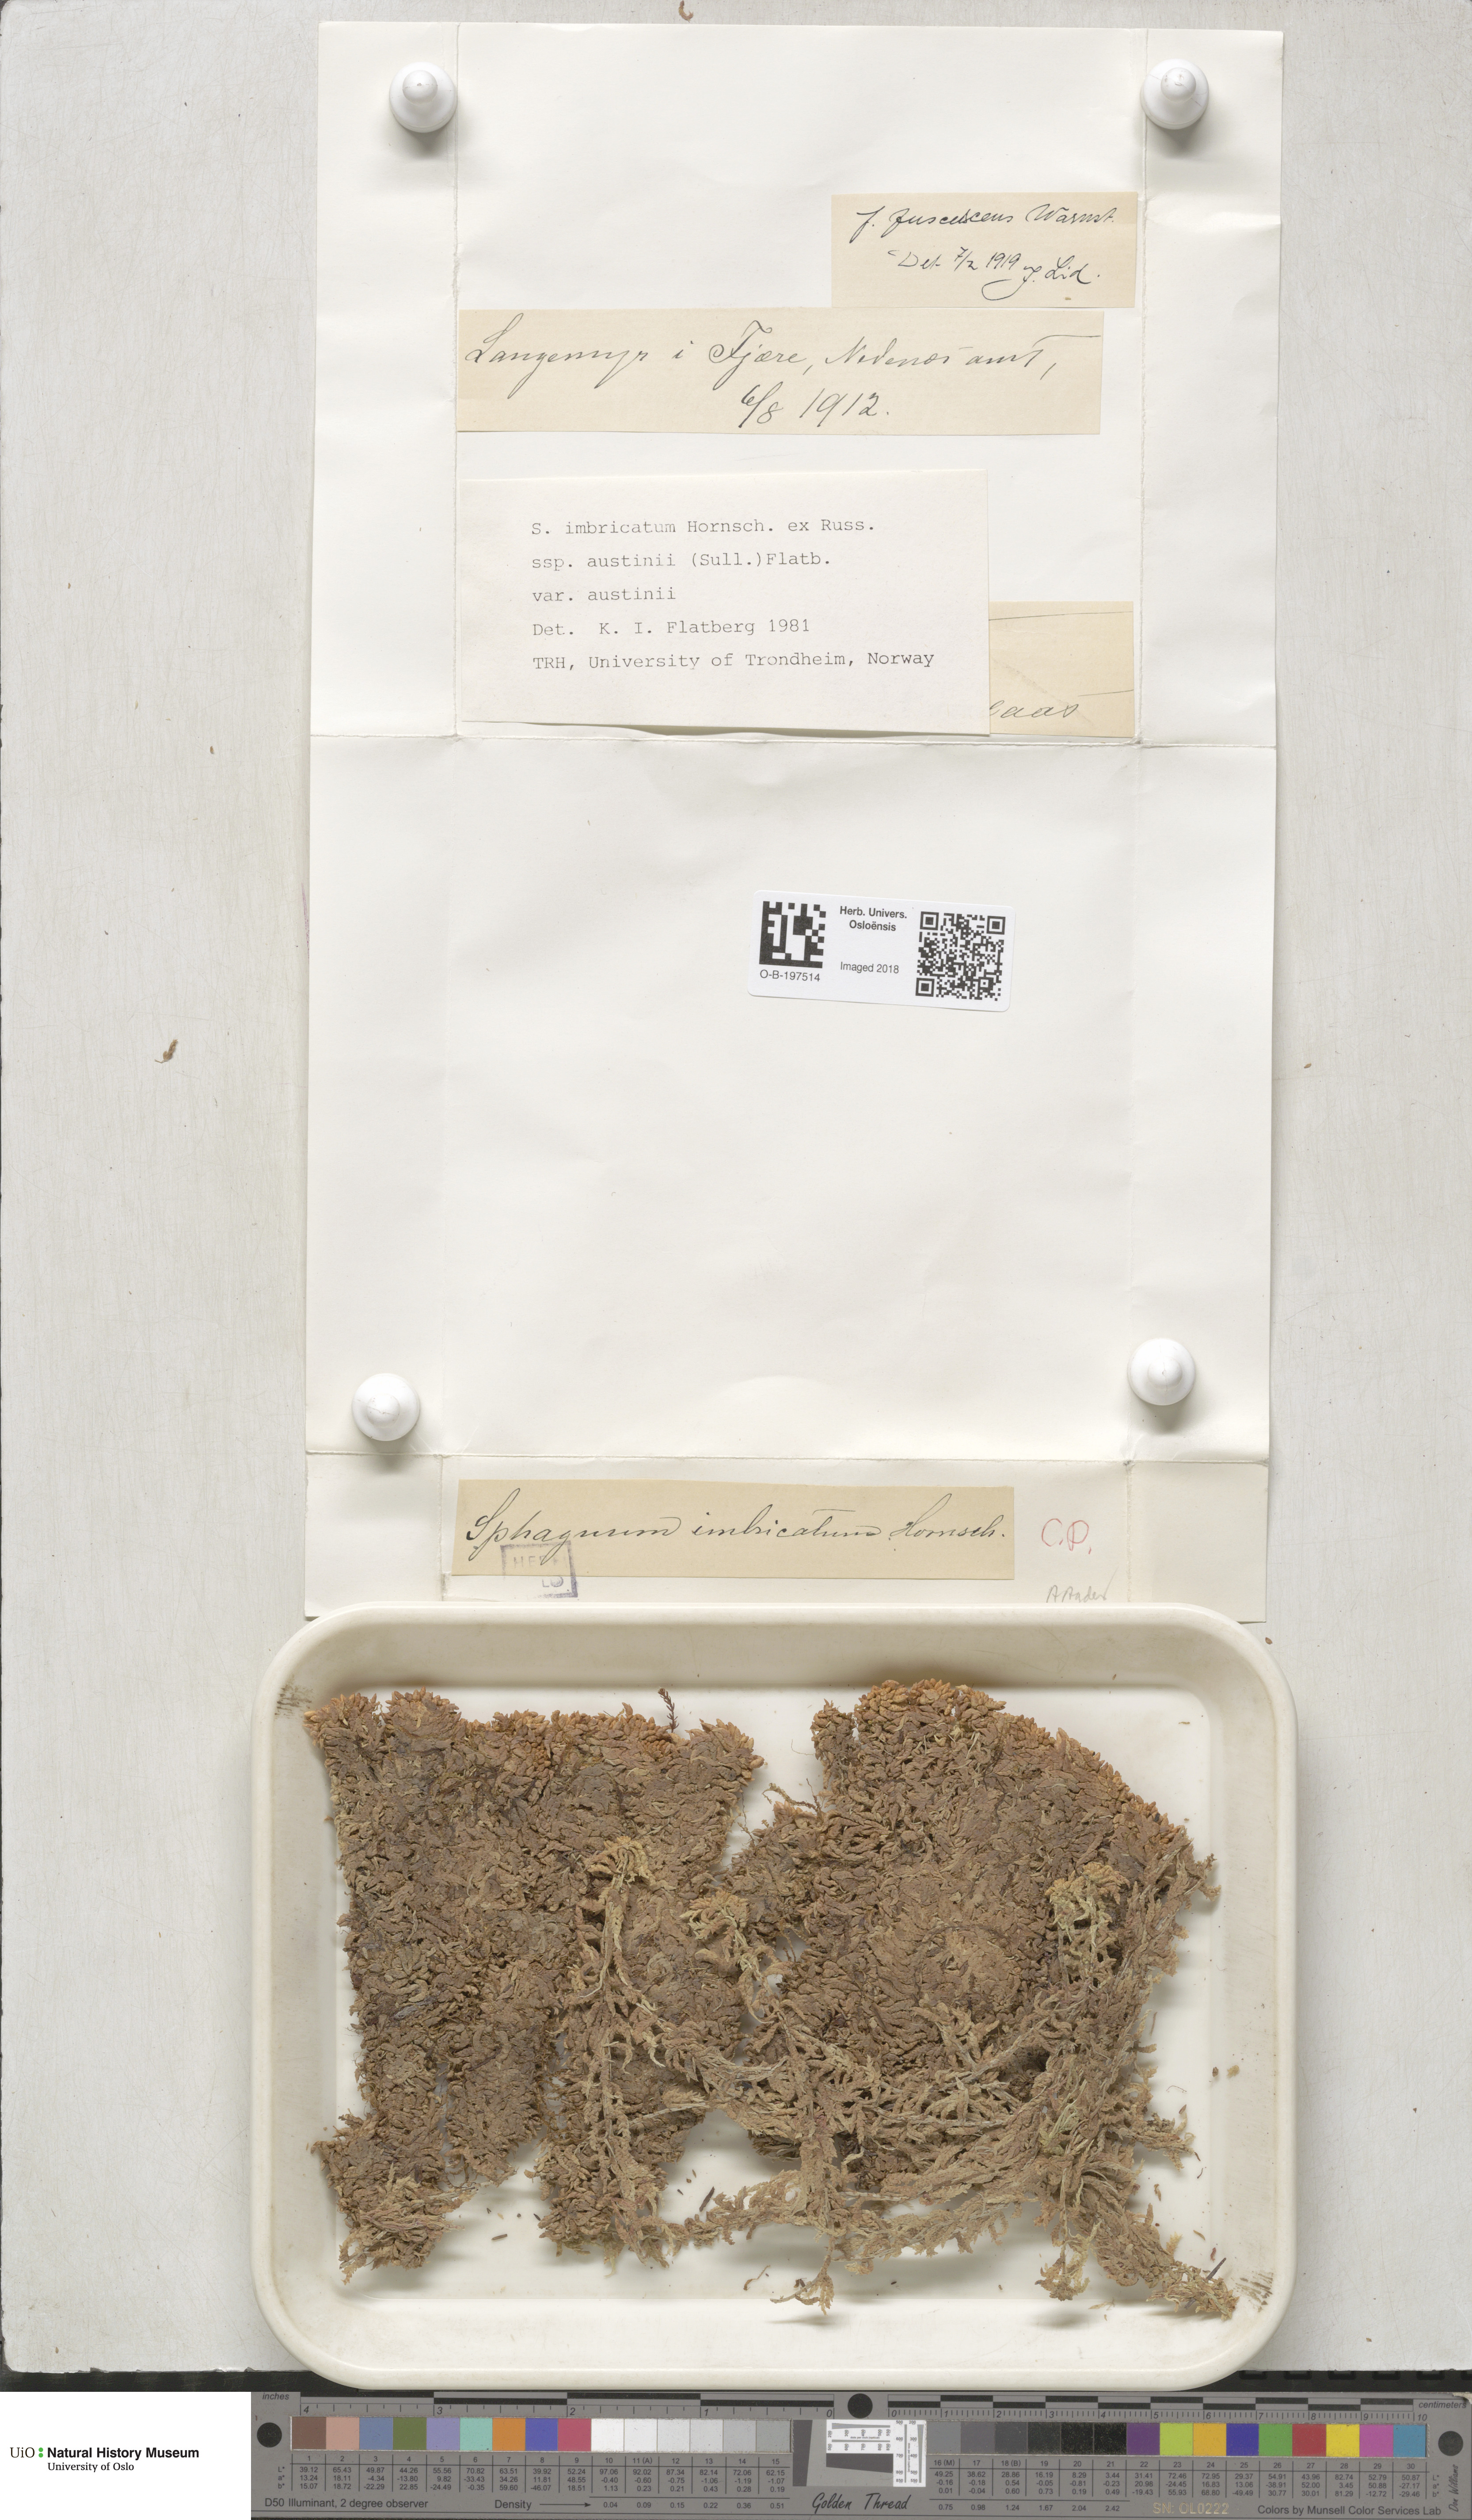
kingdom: Plantae
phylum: Bryophyta
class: Sphagnopsida
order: Sphagnales
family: Sphagnaceae
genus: Sphagnum
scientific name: Sphagnum austinii
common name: Austin's peat moss
